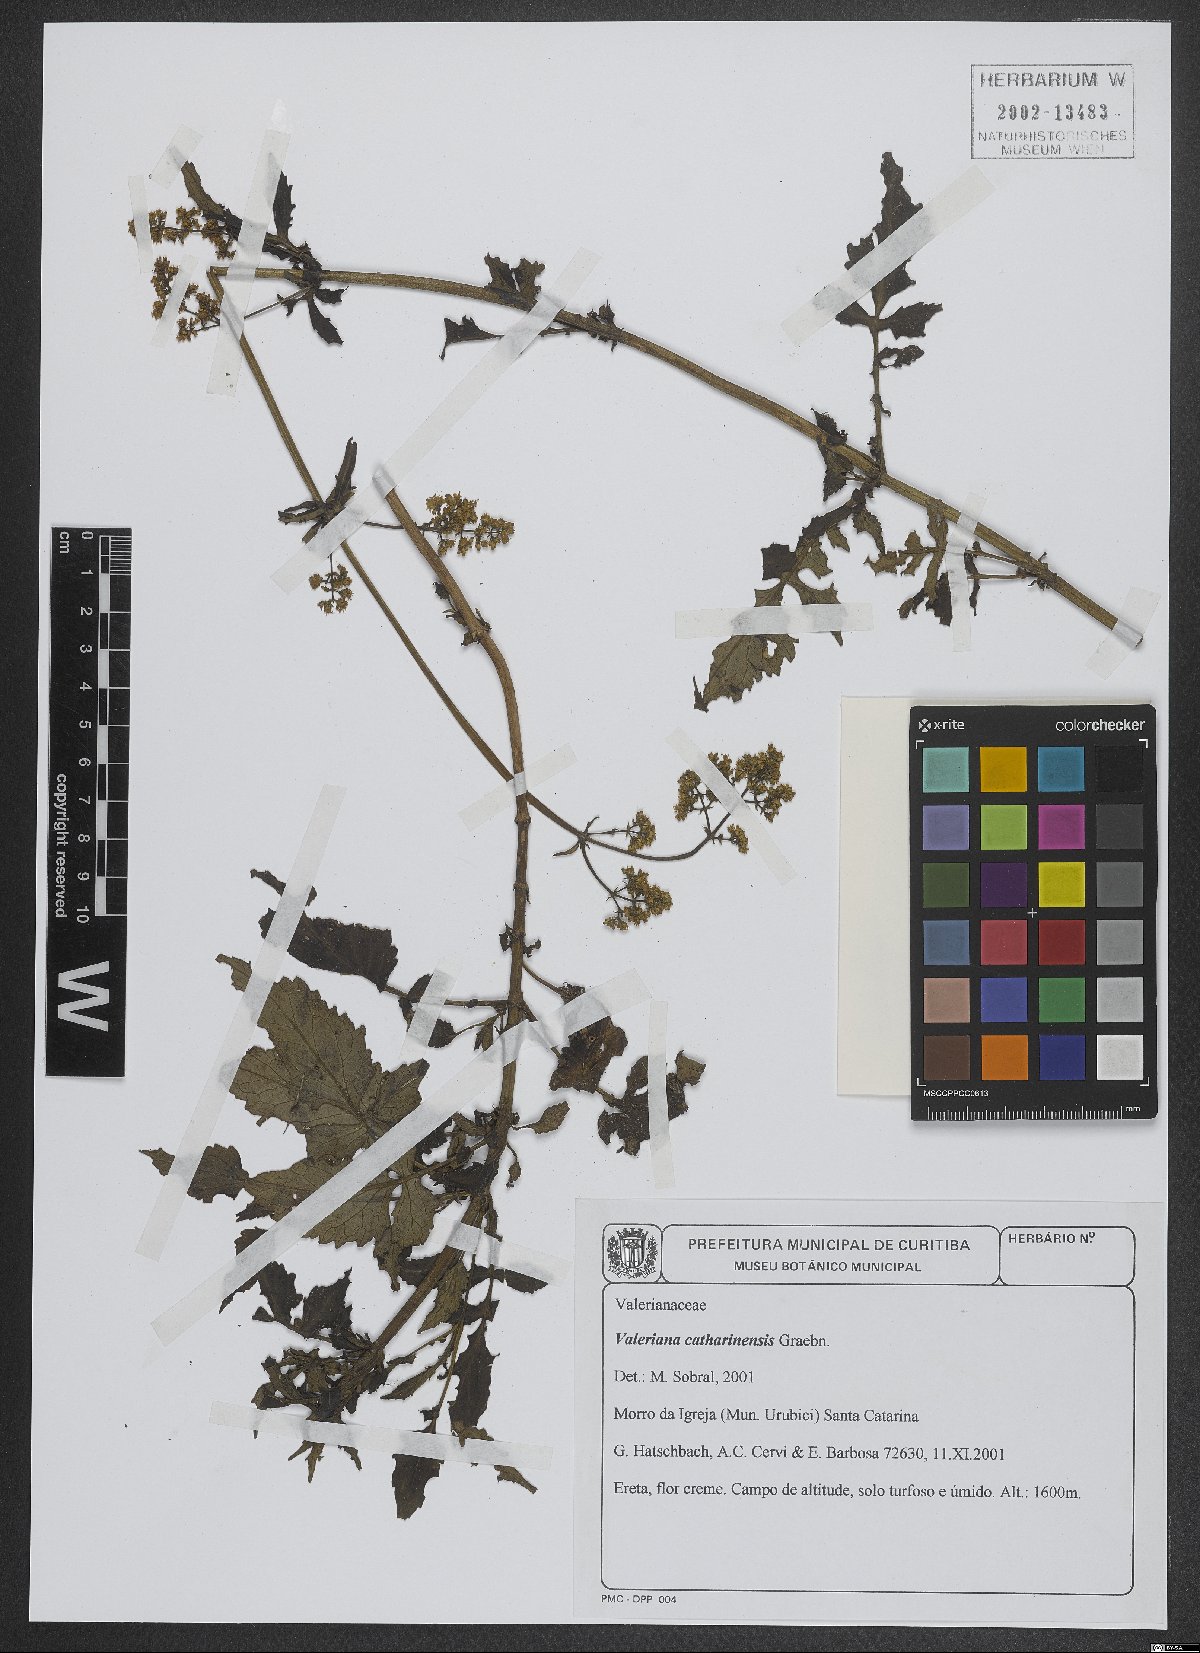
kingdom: Plantae
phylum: Tracheophyta
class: Magnoliopsida
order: Dipsacales
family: Caprifoliaceae
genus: Valeriana
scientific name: Valeriana catharinensis
